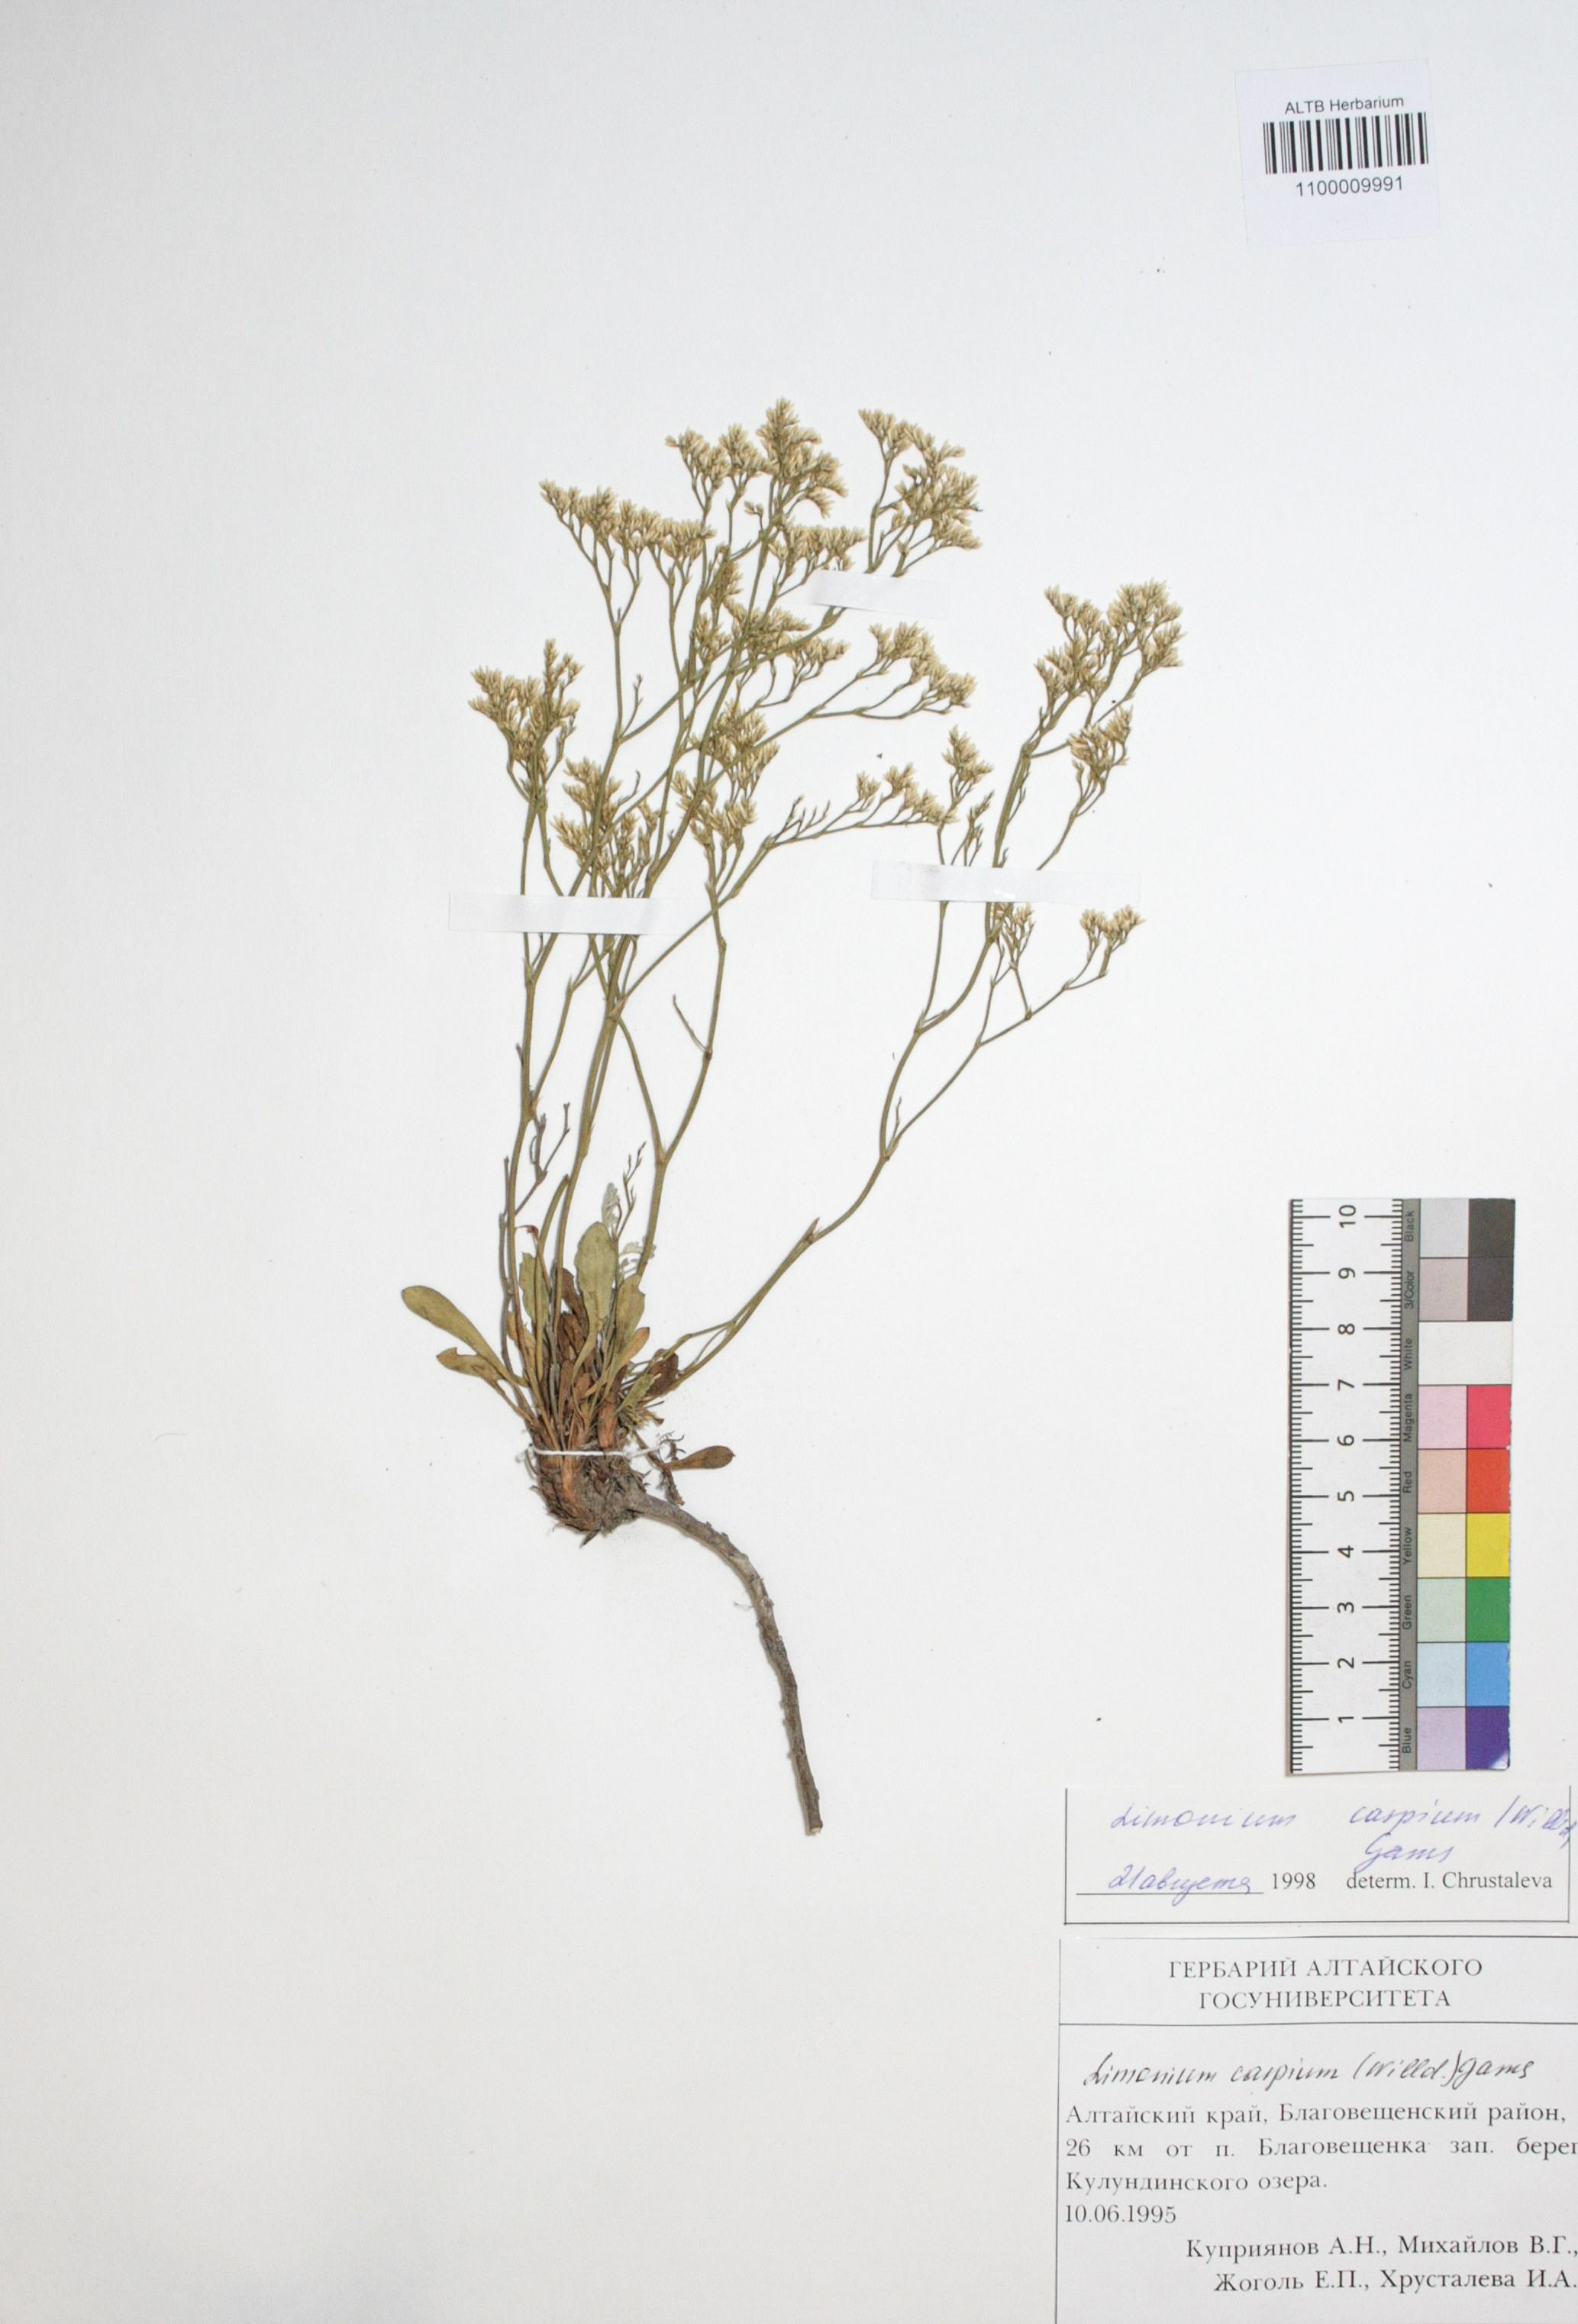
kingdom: Plantae
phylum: Tracheophyta
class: Magnoliopsida
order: Caryophyllales
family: Plumbaginaceae
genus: Limonium
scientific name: Limonium bellidifolium
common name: Matted sea-lavender
